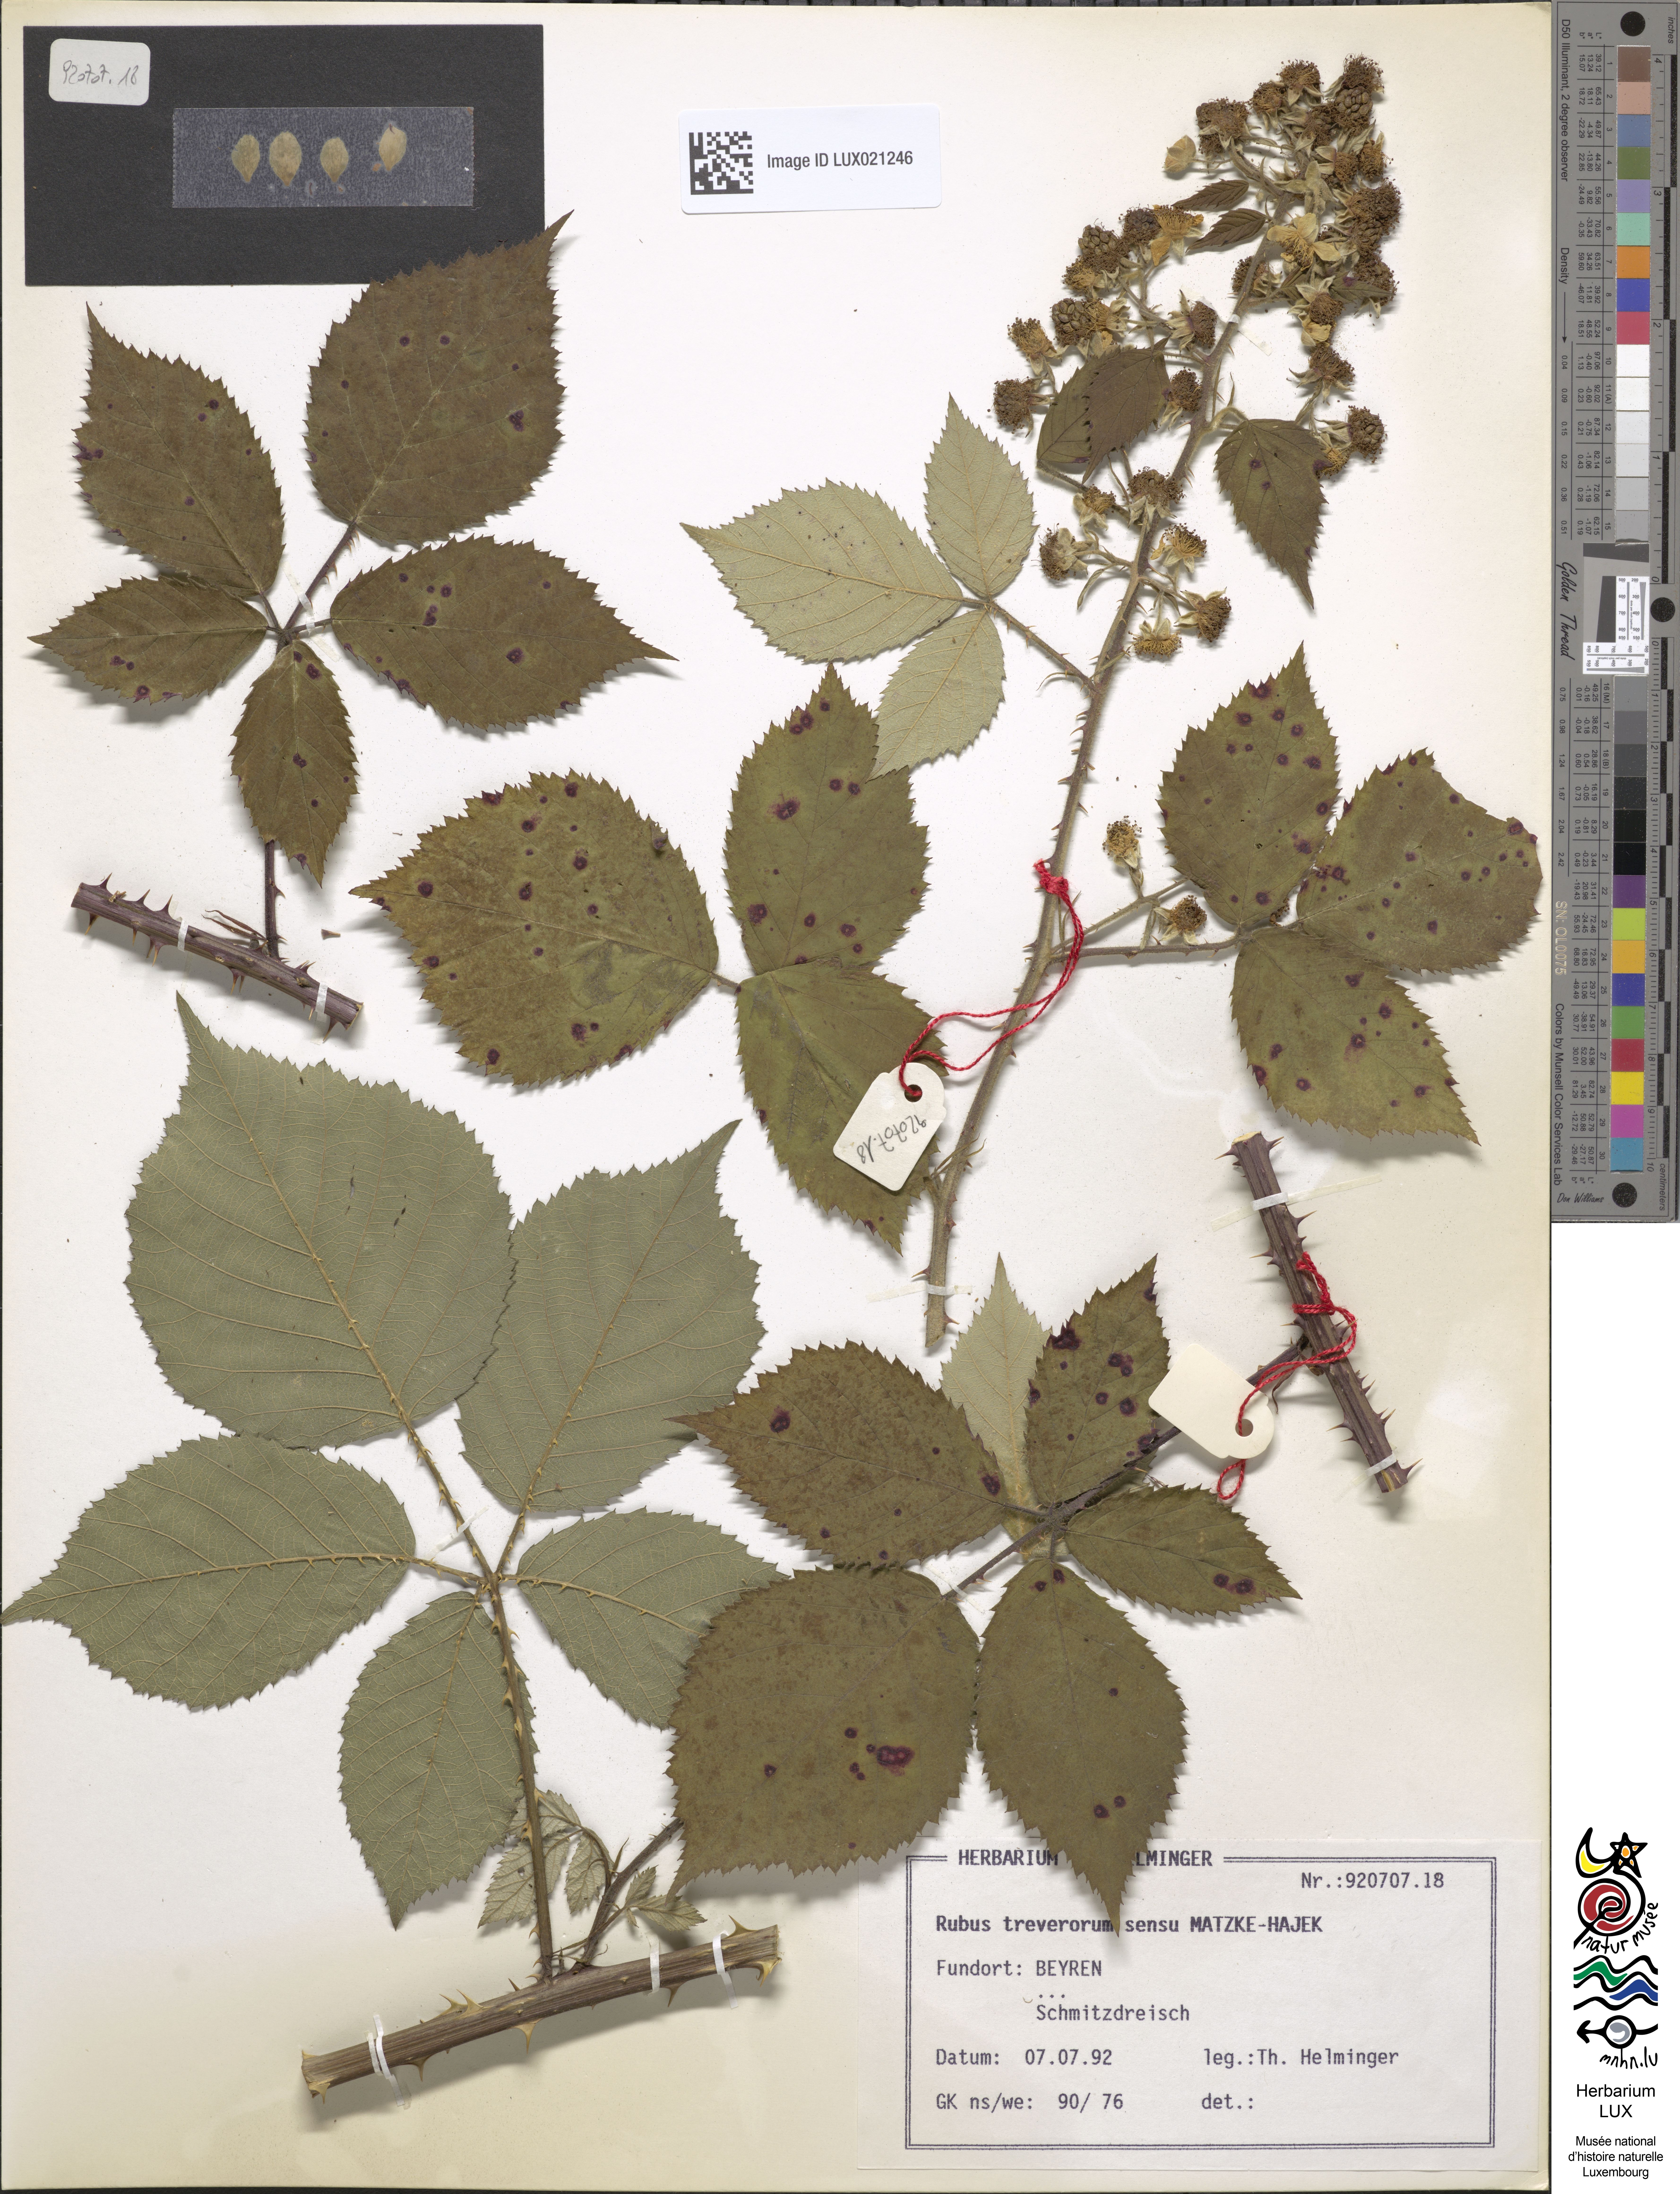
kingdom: Plantae
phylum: Tracheophyta
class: Magnoliopsida
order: Rosales
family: Rosaceae
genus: Rubus
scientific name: Rubus
